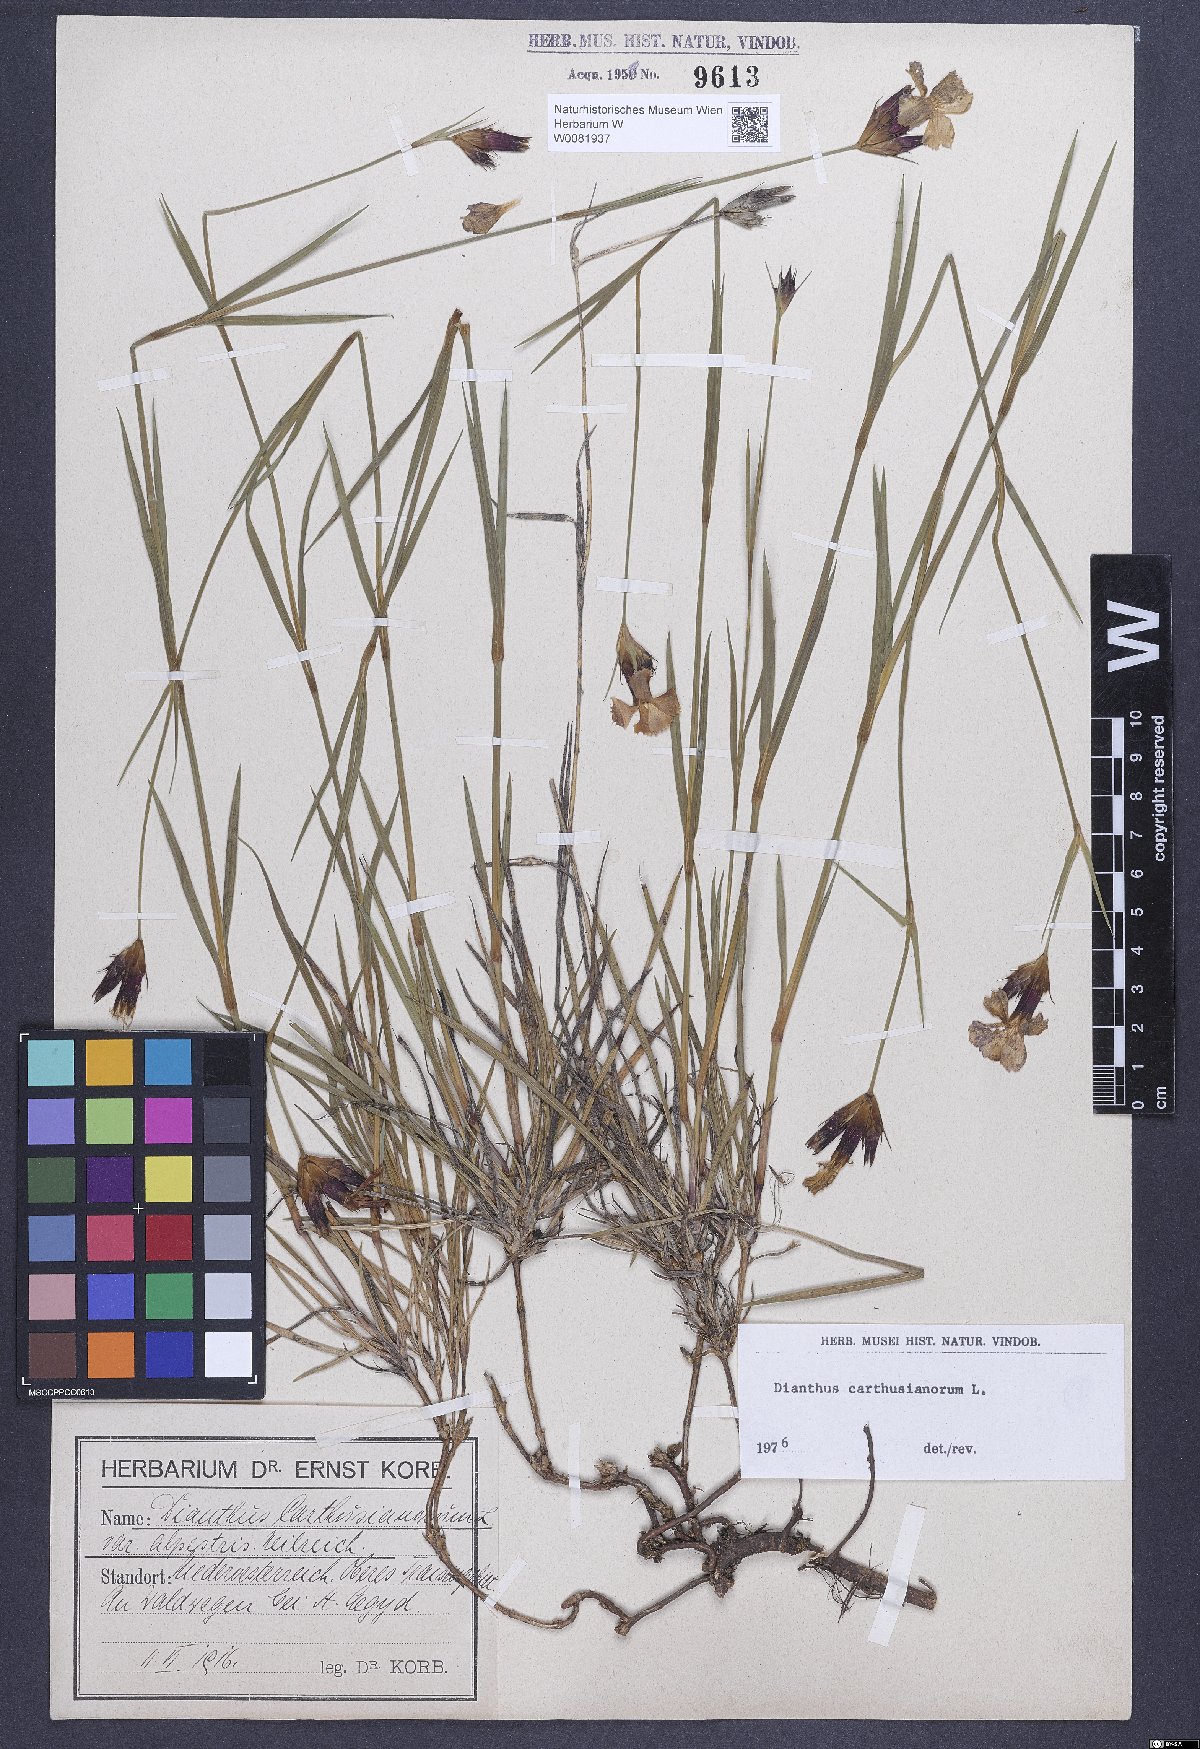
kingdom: Plantae
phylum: Tracheophyta
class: Magnoliopsida
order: Caryophyllales
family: Caryophyllaceae
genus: Dianthus
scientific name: Dianthus carthusianorum
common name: Carthusian pink
